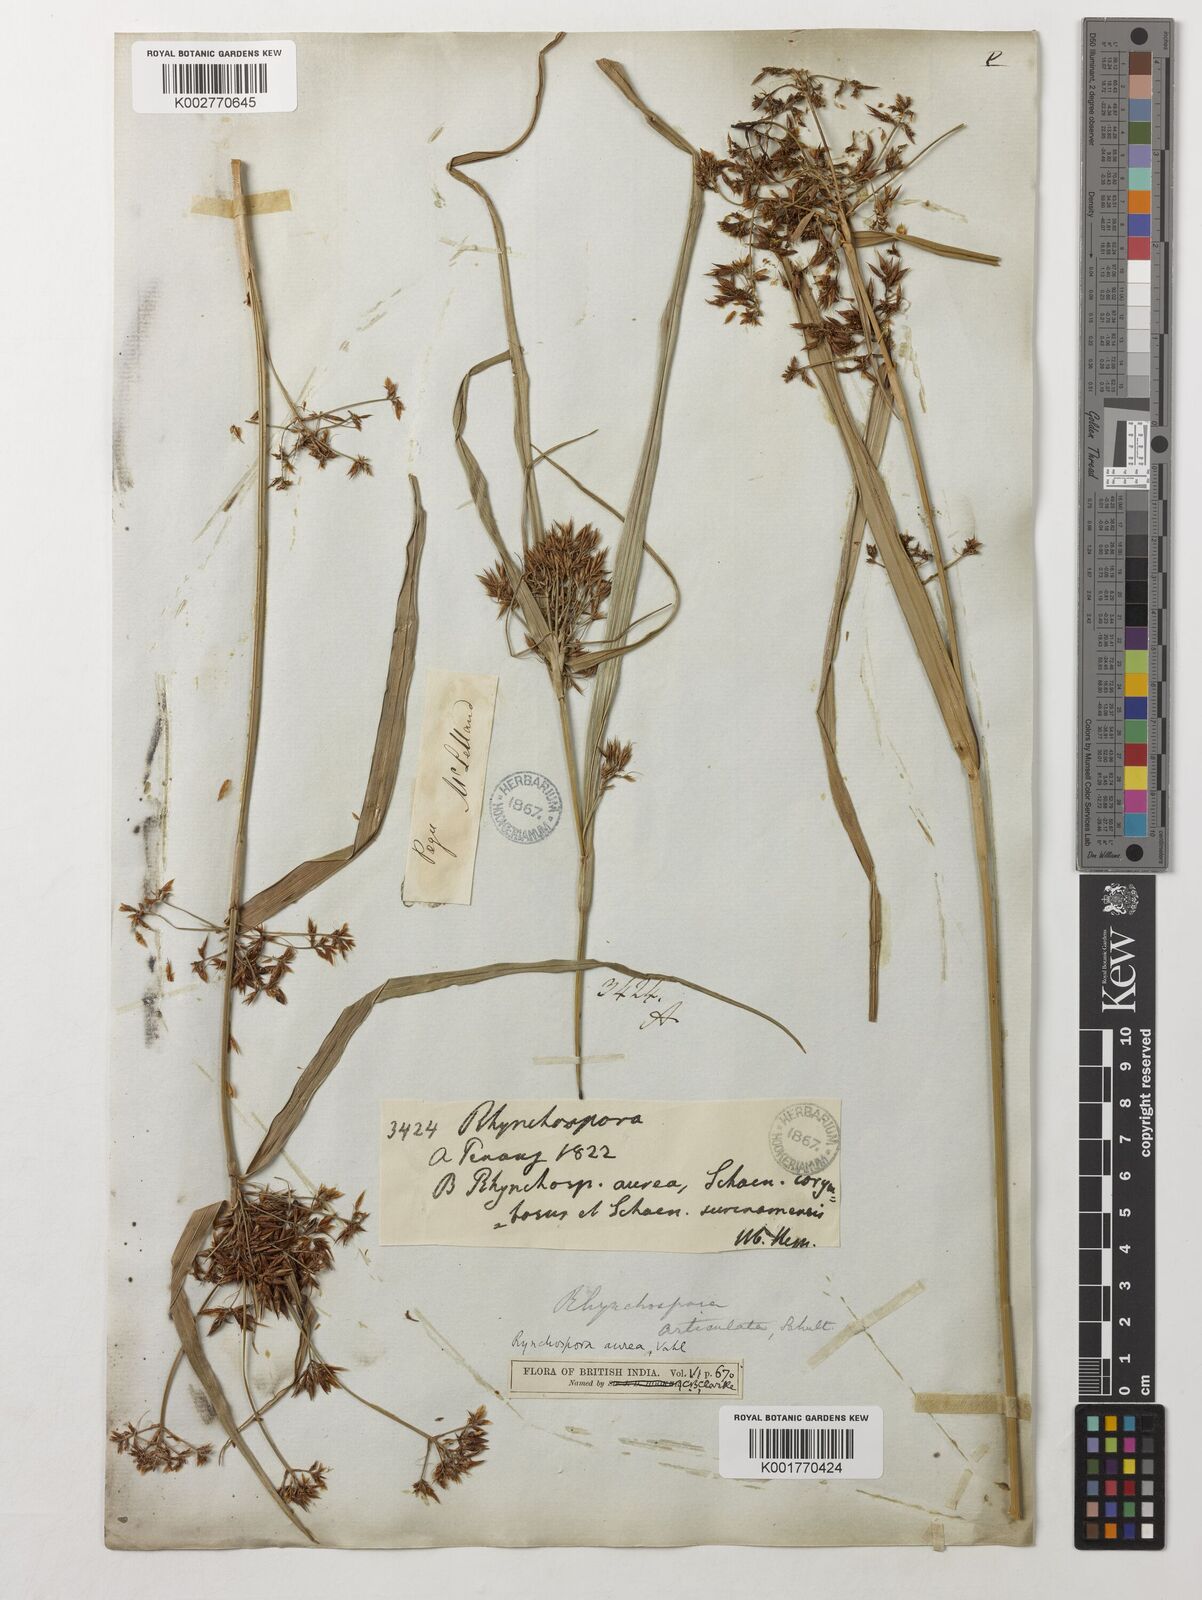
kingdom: Plantae
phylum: Tracheophyta
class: Liliopsida
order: Poales
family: Poaceae
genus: Apluda
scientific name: Apluda mutica
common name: Mauritian grass
